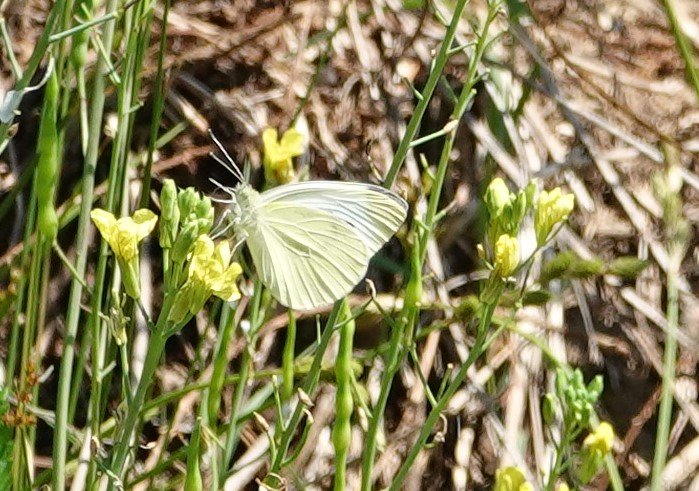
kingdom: Animalia
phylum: Arthropoda
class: Insecta
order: Lepidoptera
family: Pieridae
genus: Pieris
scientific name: Pieris rapae
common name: Cabbage White
